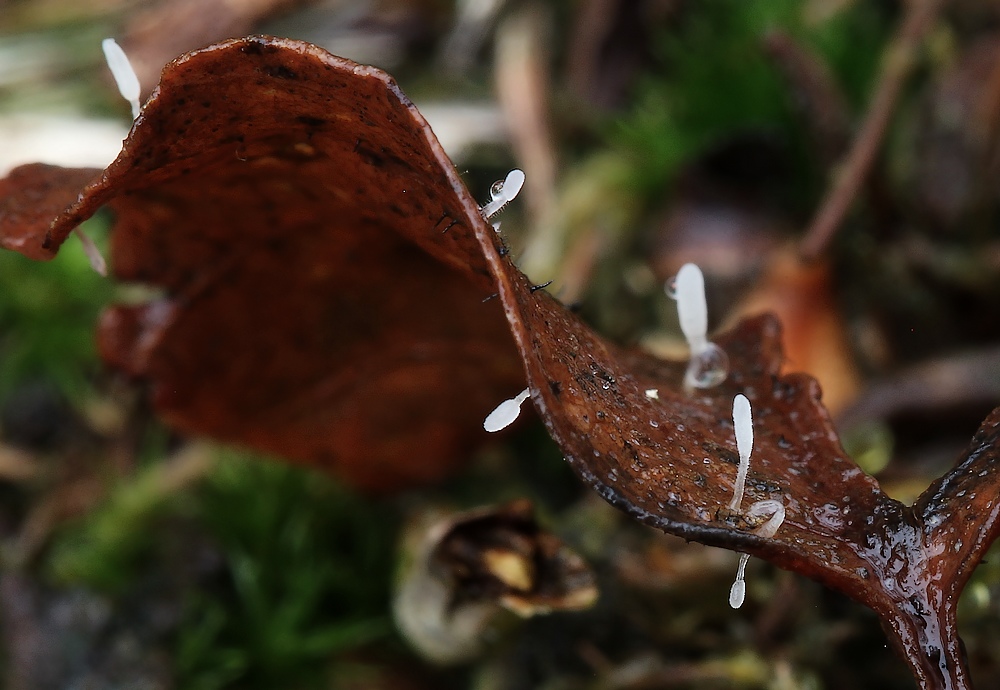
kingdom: Fungi
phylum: Basidiomycota
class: Agaricomycetes
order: Agaricales
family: Typhulaceae
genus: Typhula
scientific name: Typhula setipes
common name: liden trådkølle
